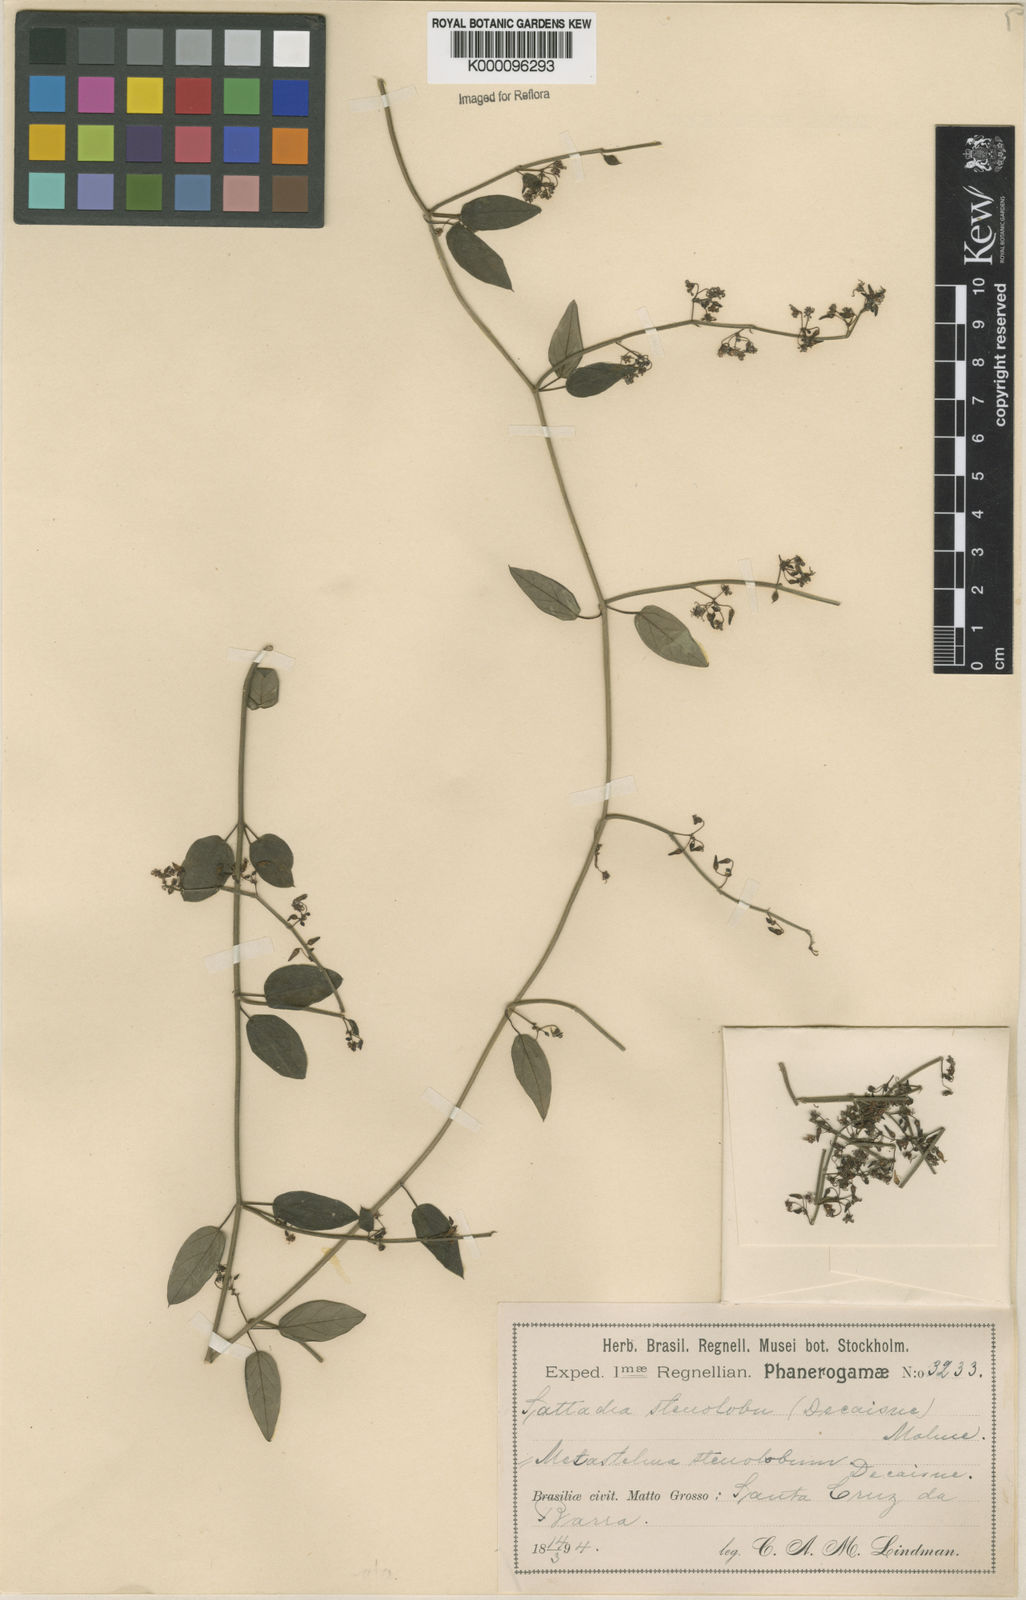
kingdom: Plantae
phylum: Tracheophyta
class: Magnoliopsida
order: Gentianales
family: Apocynaceae
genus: Tassadia
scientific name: Tassadia
